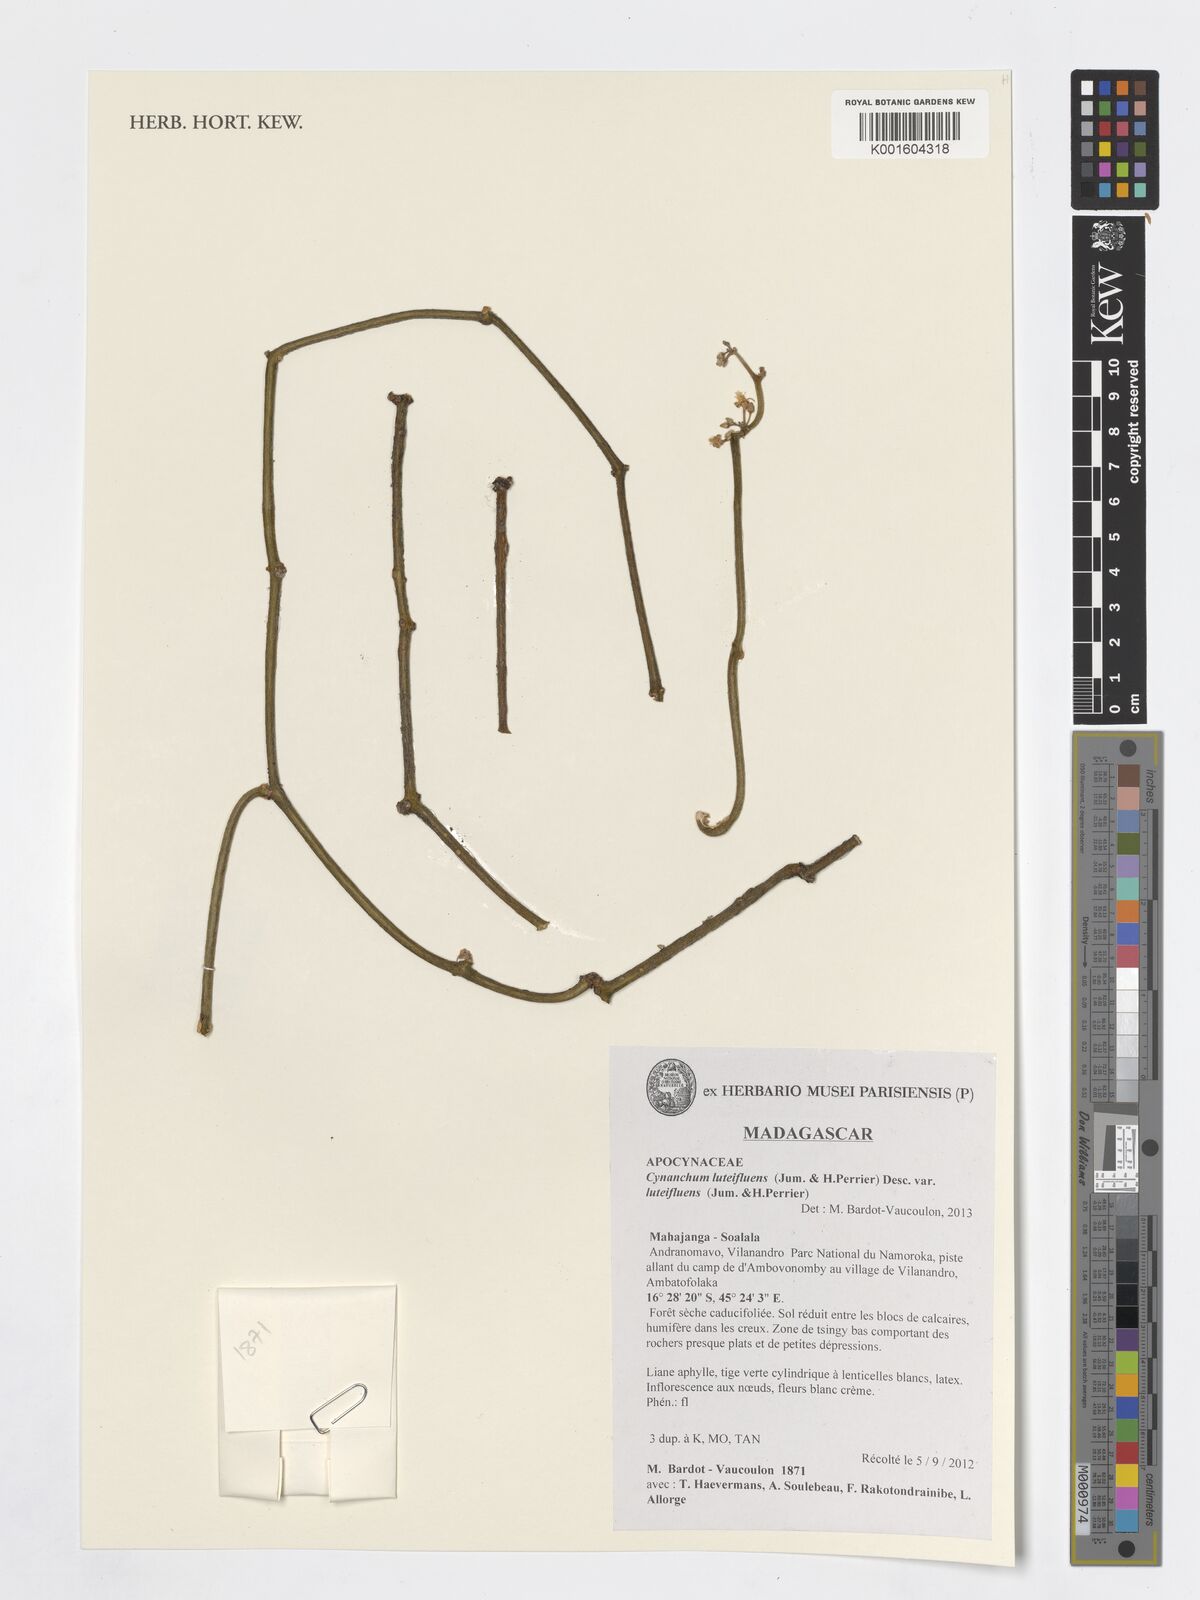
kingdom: Plantae
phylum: Tracheophyta
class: Magnoliopsida
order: Gentianales
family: Apocynaceae
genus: Cynanchum
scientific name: Cynanchum luteifluens
